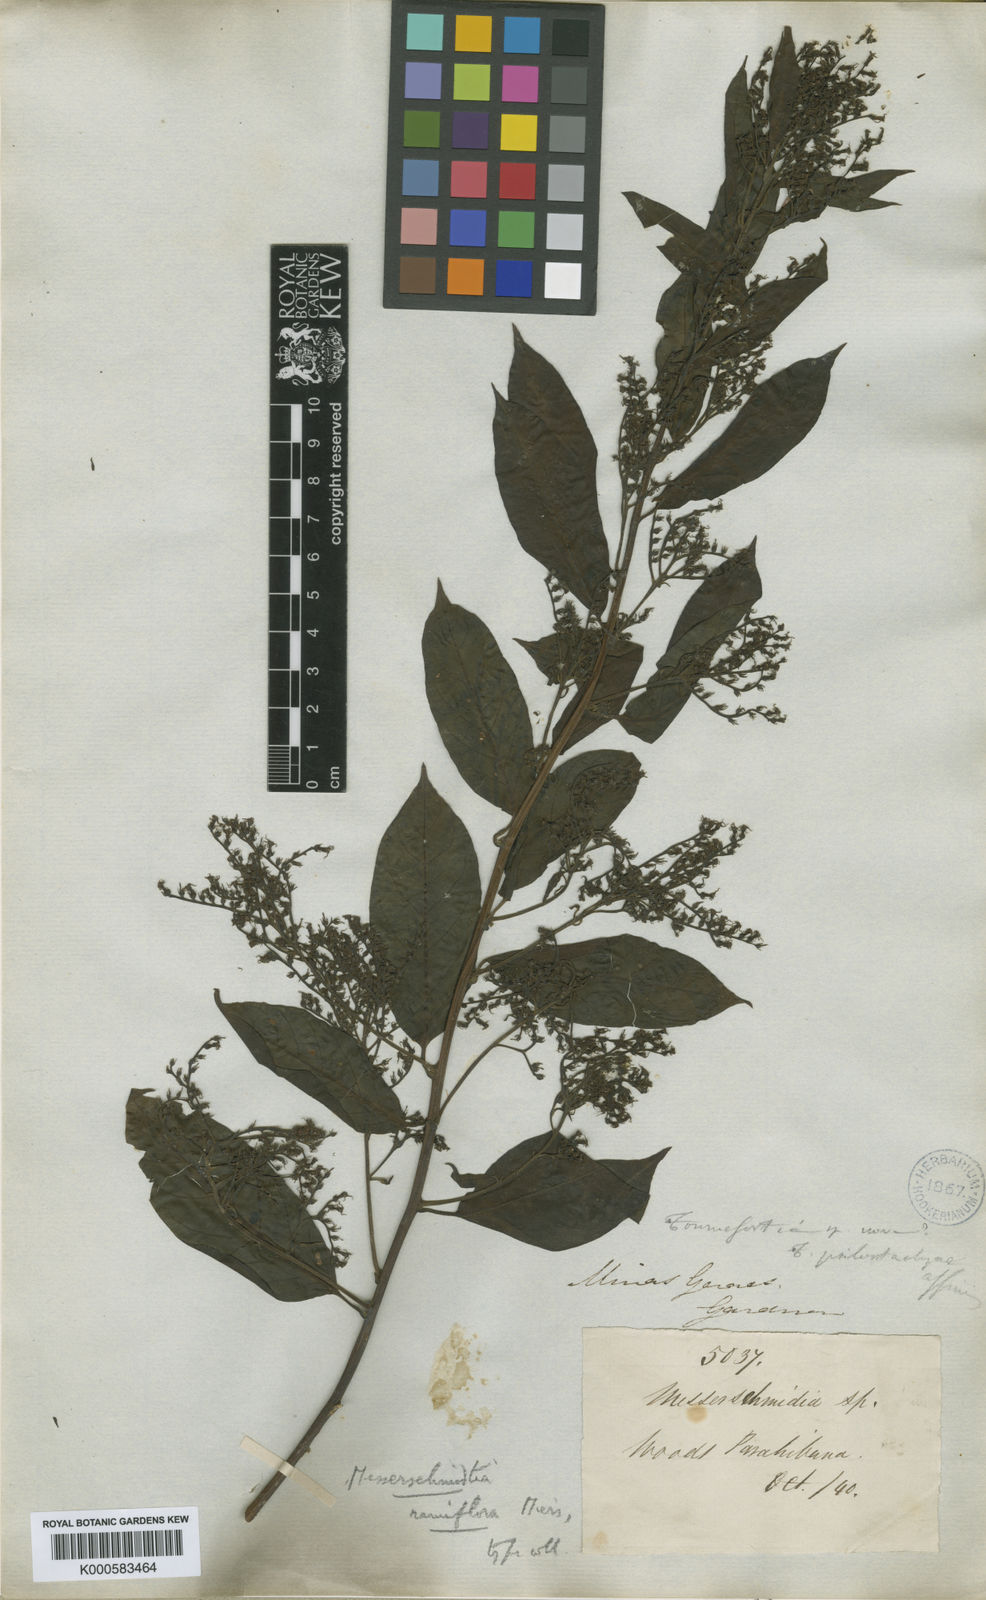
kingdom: Plantae
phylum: Tracheophyta
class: Magnoliopsida
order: Boraginales
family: Heliotropiaceae
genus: Myriopus
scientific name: Myriopus breviflorus
